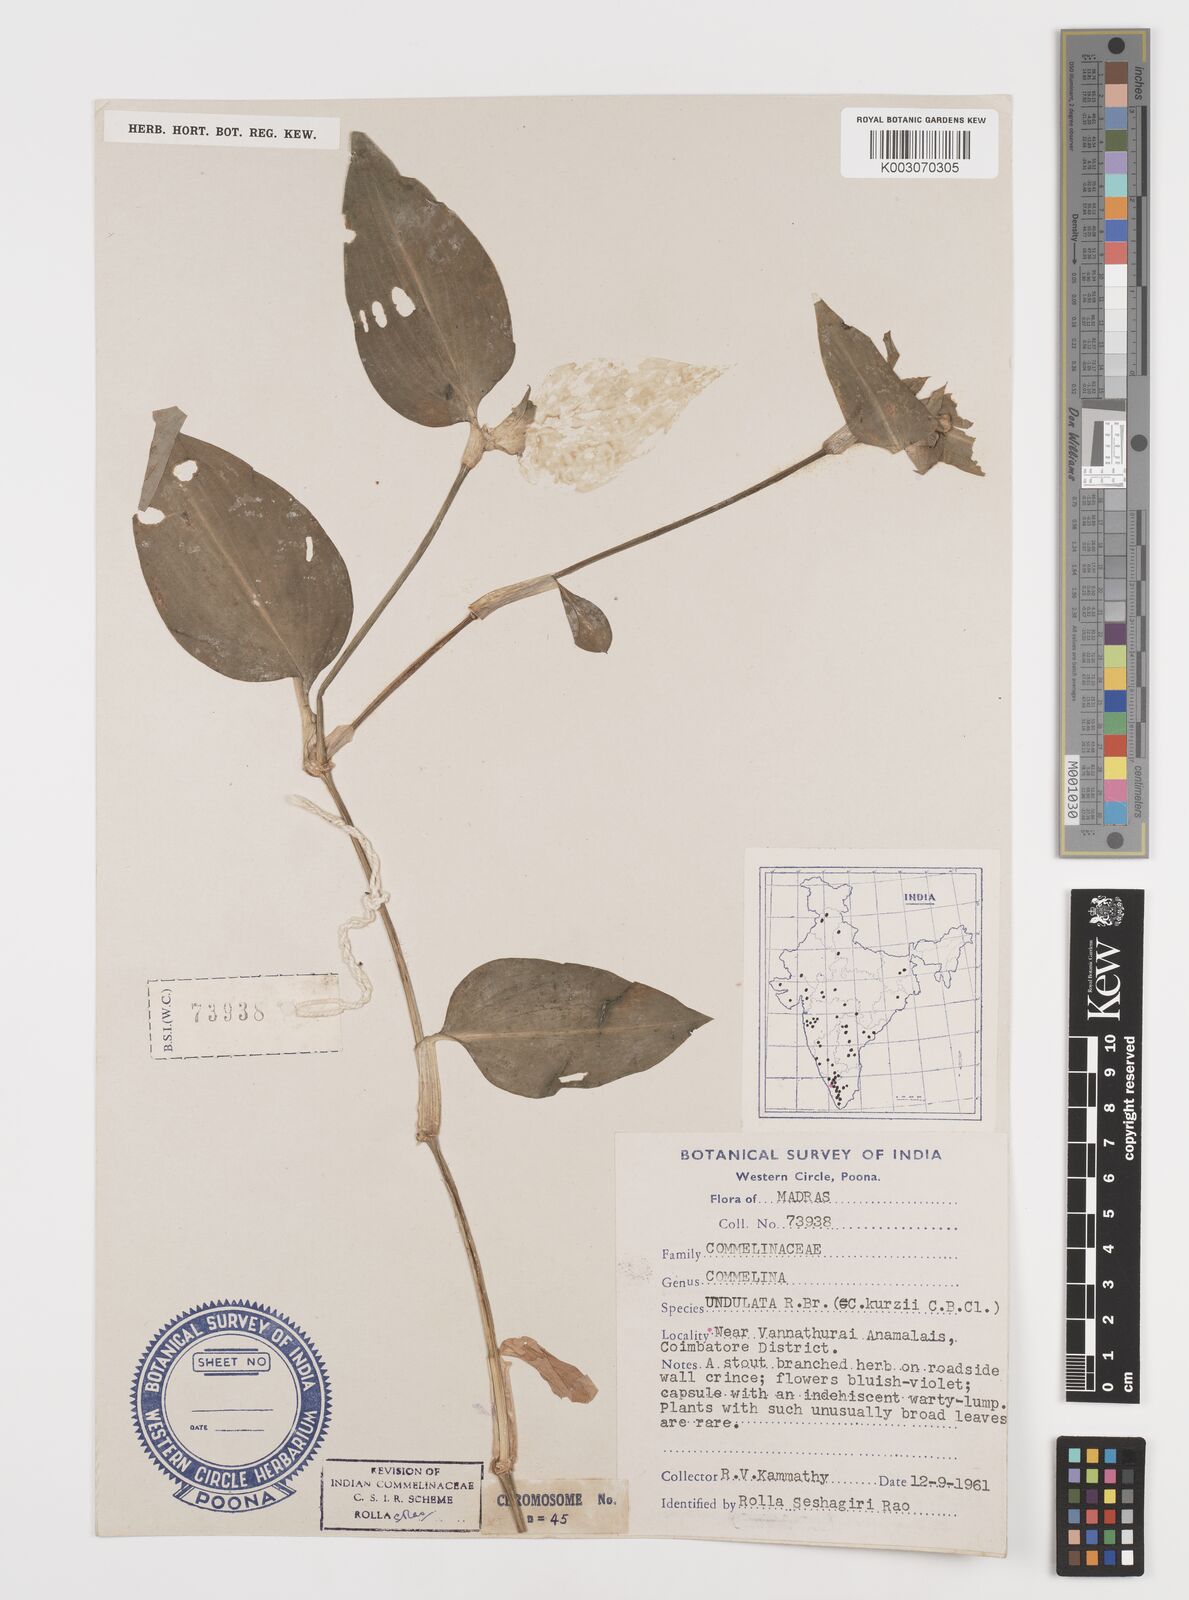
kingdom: Plantae
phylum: Tracheophyta
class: Liliopsida
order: Commelinales
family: Commelinaceae
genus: Commelina
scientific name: Commelina chamissonis
